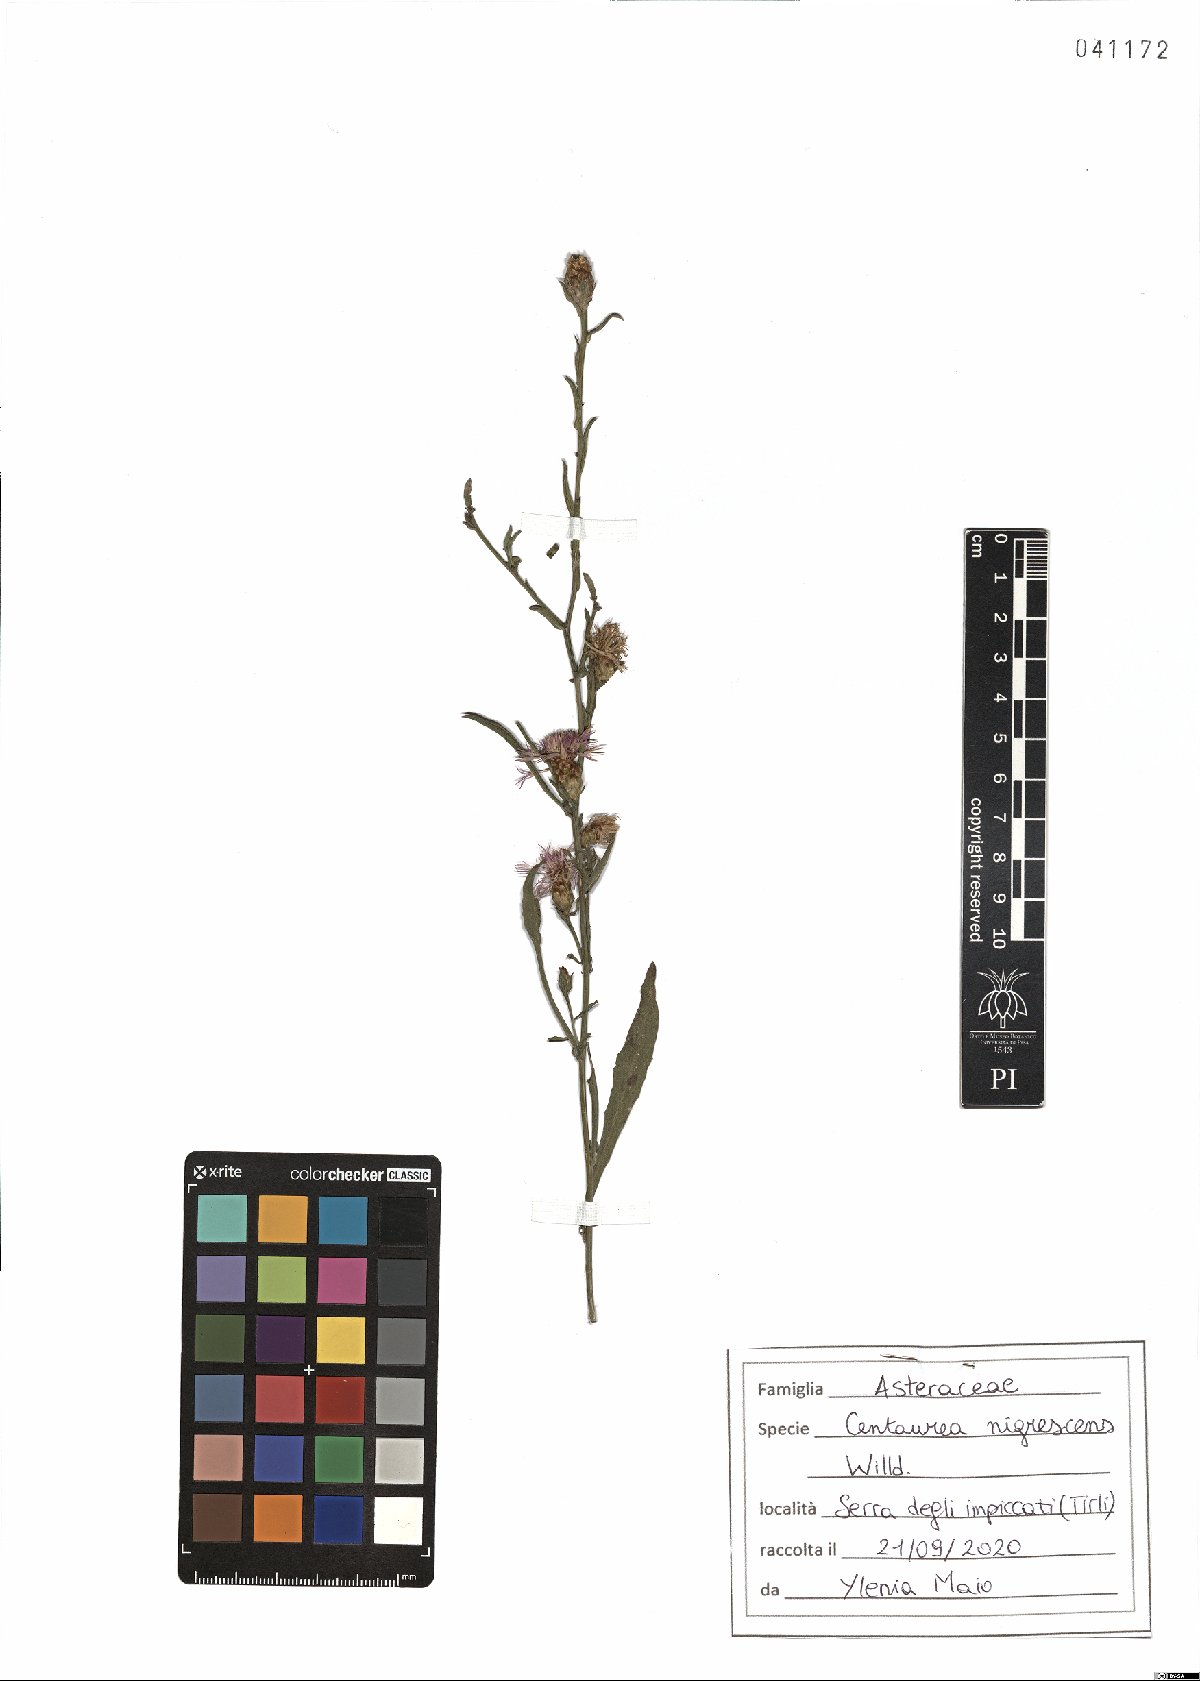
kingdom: Plantae
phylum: Tracheophyta
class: Magnoliopsida
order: Asterales
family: Asteraceae
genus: Centaurea
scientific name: Centaurea nigrescens
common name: Tyrol knapweed
